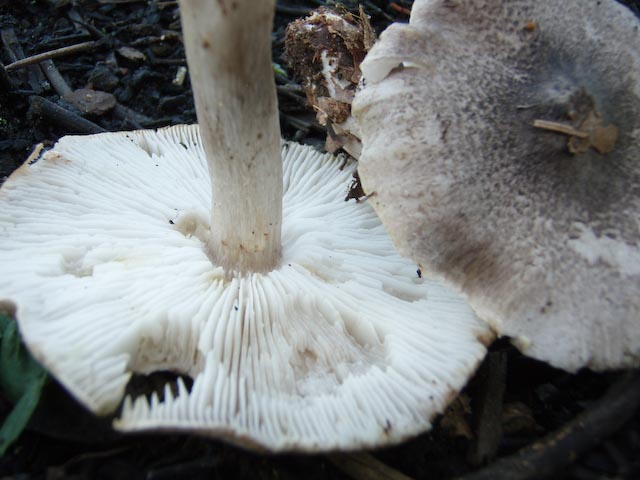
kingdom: Fungi
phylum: Basidiomycota
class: Agaricomycetes
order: Agaricales
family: Tricholomataceae
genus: Tricholoma
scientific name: Tricholoma scalpturatum
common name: gulplettet ridderhat
